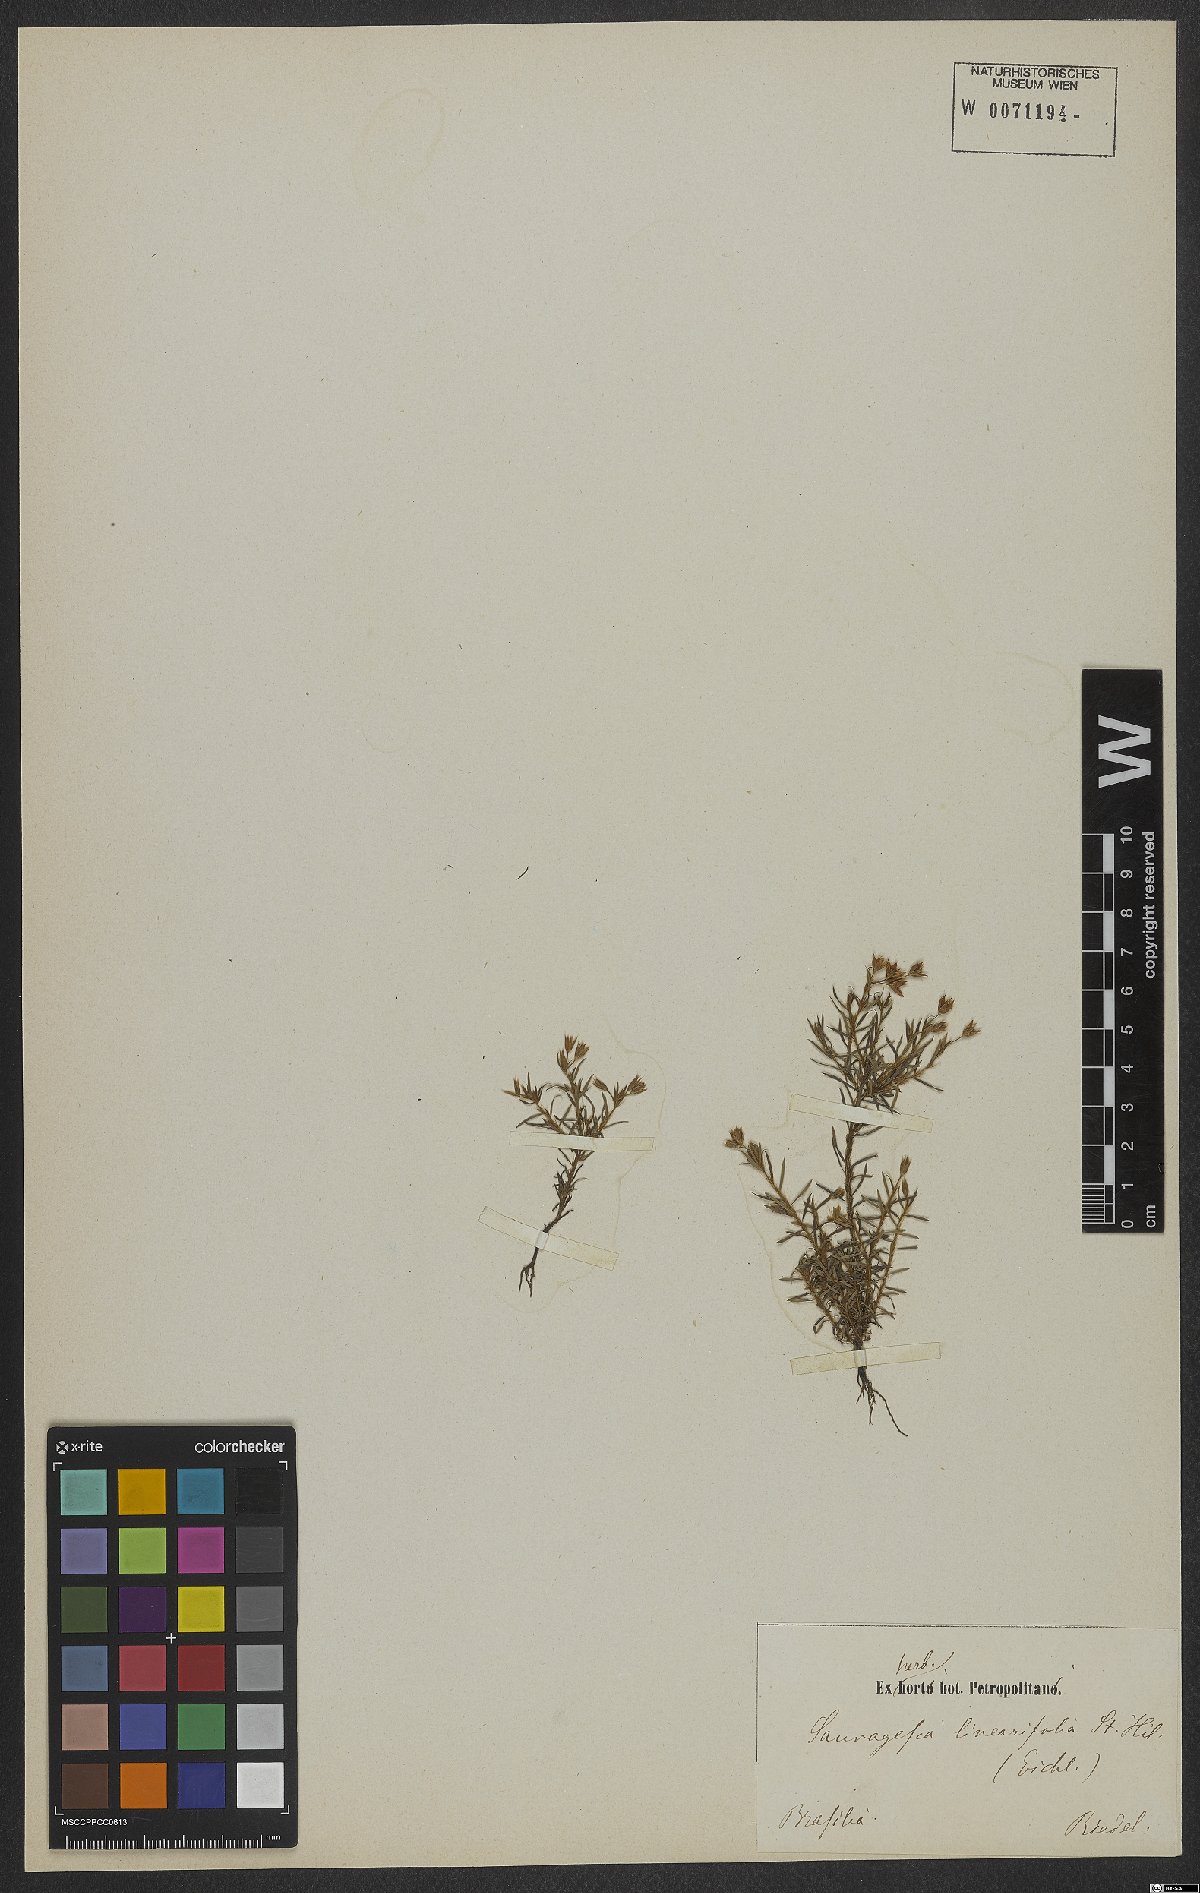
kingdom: Plantae
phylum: Tracheophyta
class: Magnoliopsida
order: Malpighiales
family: Ochnaceae
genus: Sauvagesia
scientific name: Sauvagesia linearifolia
